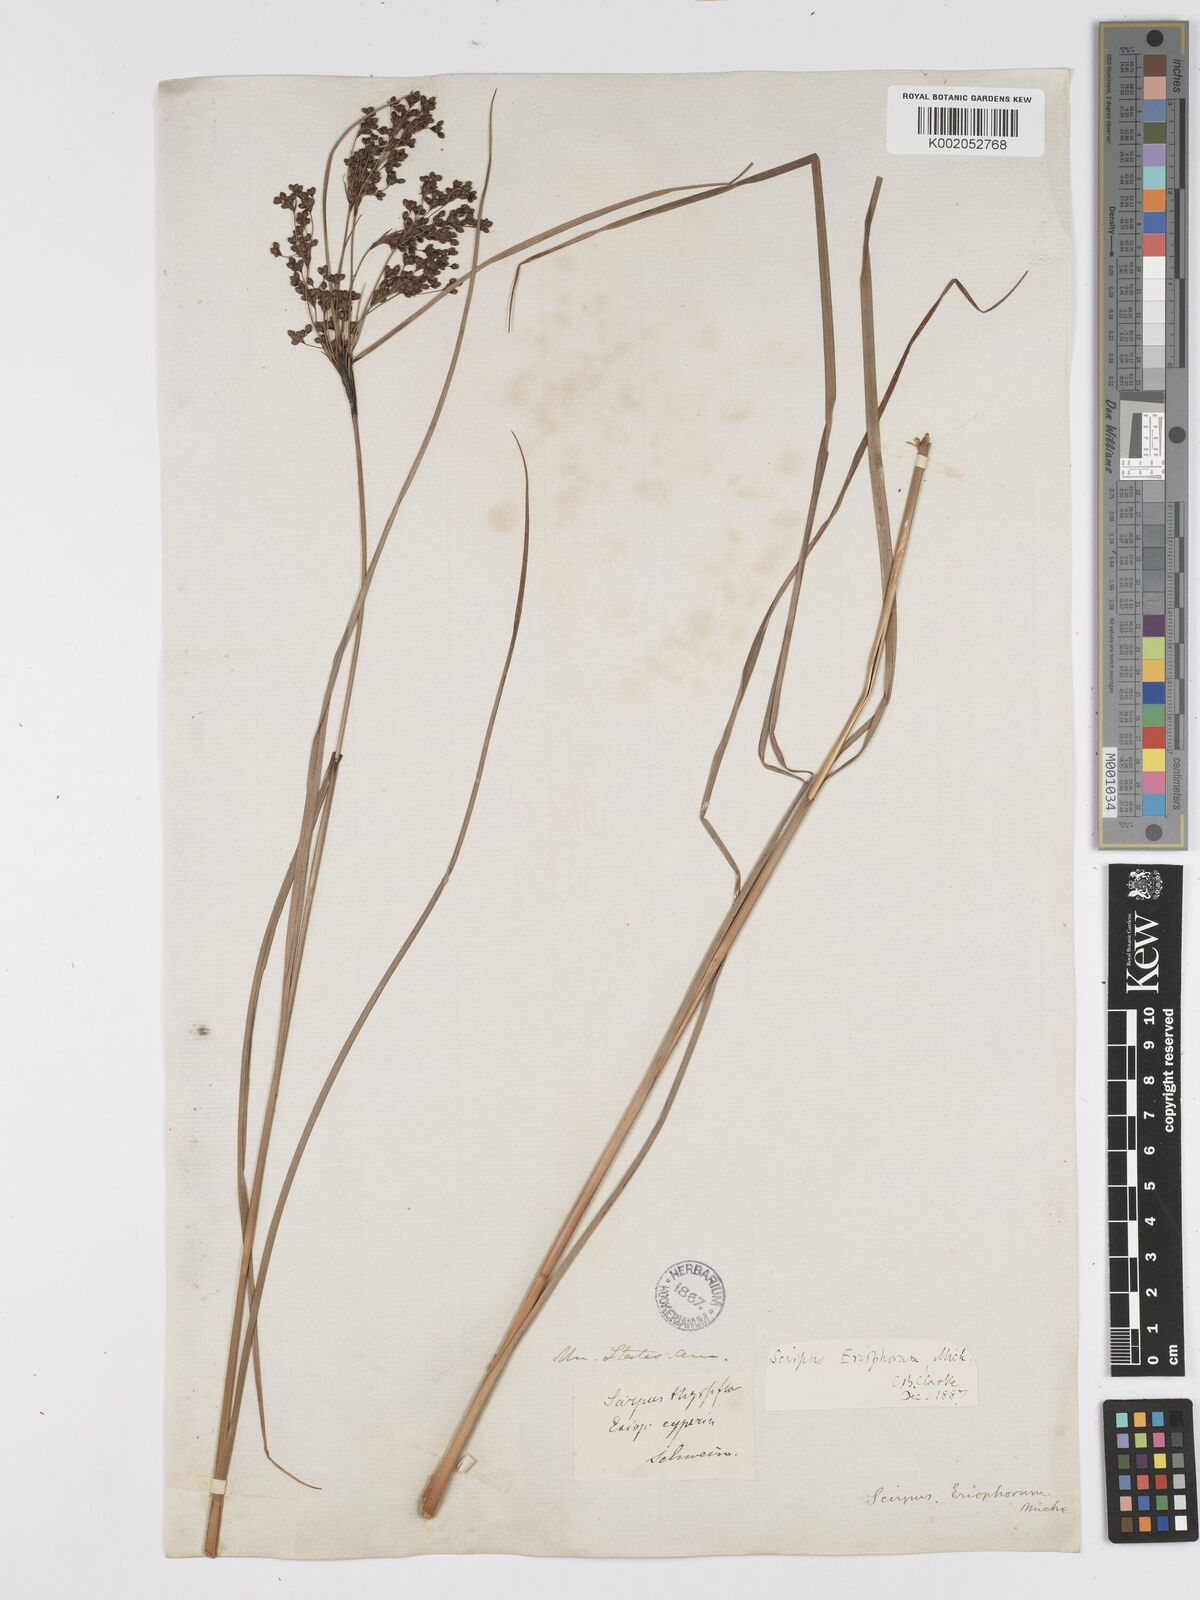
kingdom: Plantae
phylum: Tracheophyta
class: Liliopsida
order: Poales
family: Cyperaceae
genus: Scirpus
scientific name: Scirpus cyperinus
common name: Black-sheathed bulrush
